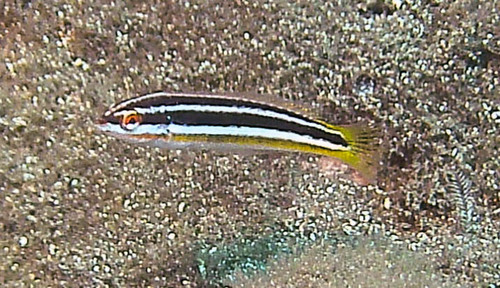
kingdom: Animalia
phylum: Chordata
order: Perciformes
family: Labridae
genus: Coris
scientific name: Coris julis
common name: Rainbow wrasse
